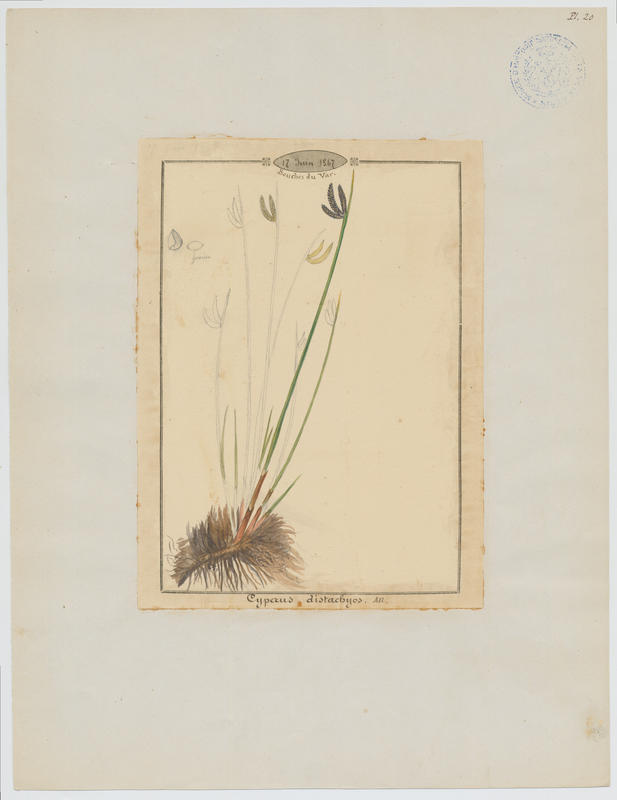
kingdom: Plantae
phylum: Tracheophyta
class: Liliopsida
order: Poales
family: Cyperaceae
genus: Cyperus
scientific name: Cyperus laevigatus
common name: Smooth flat sedge
